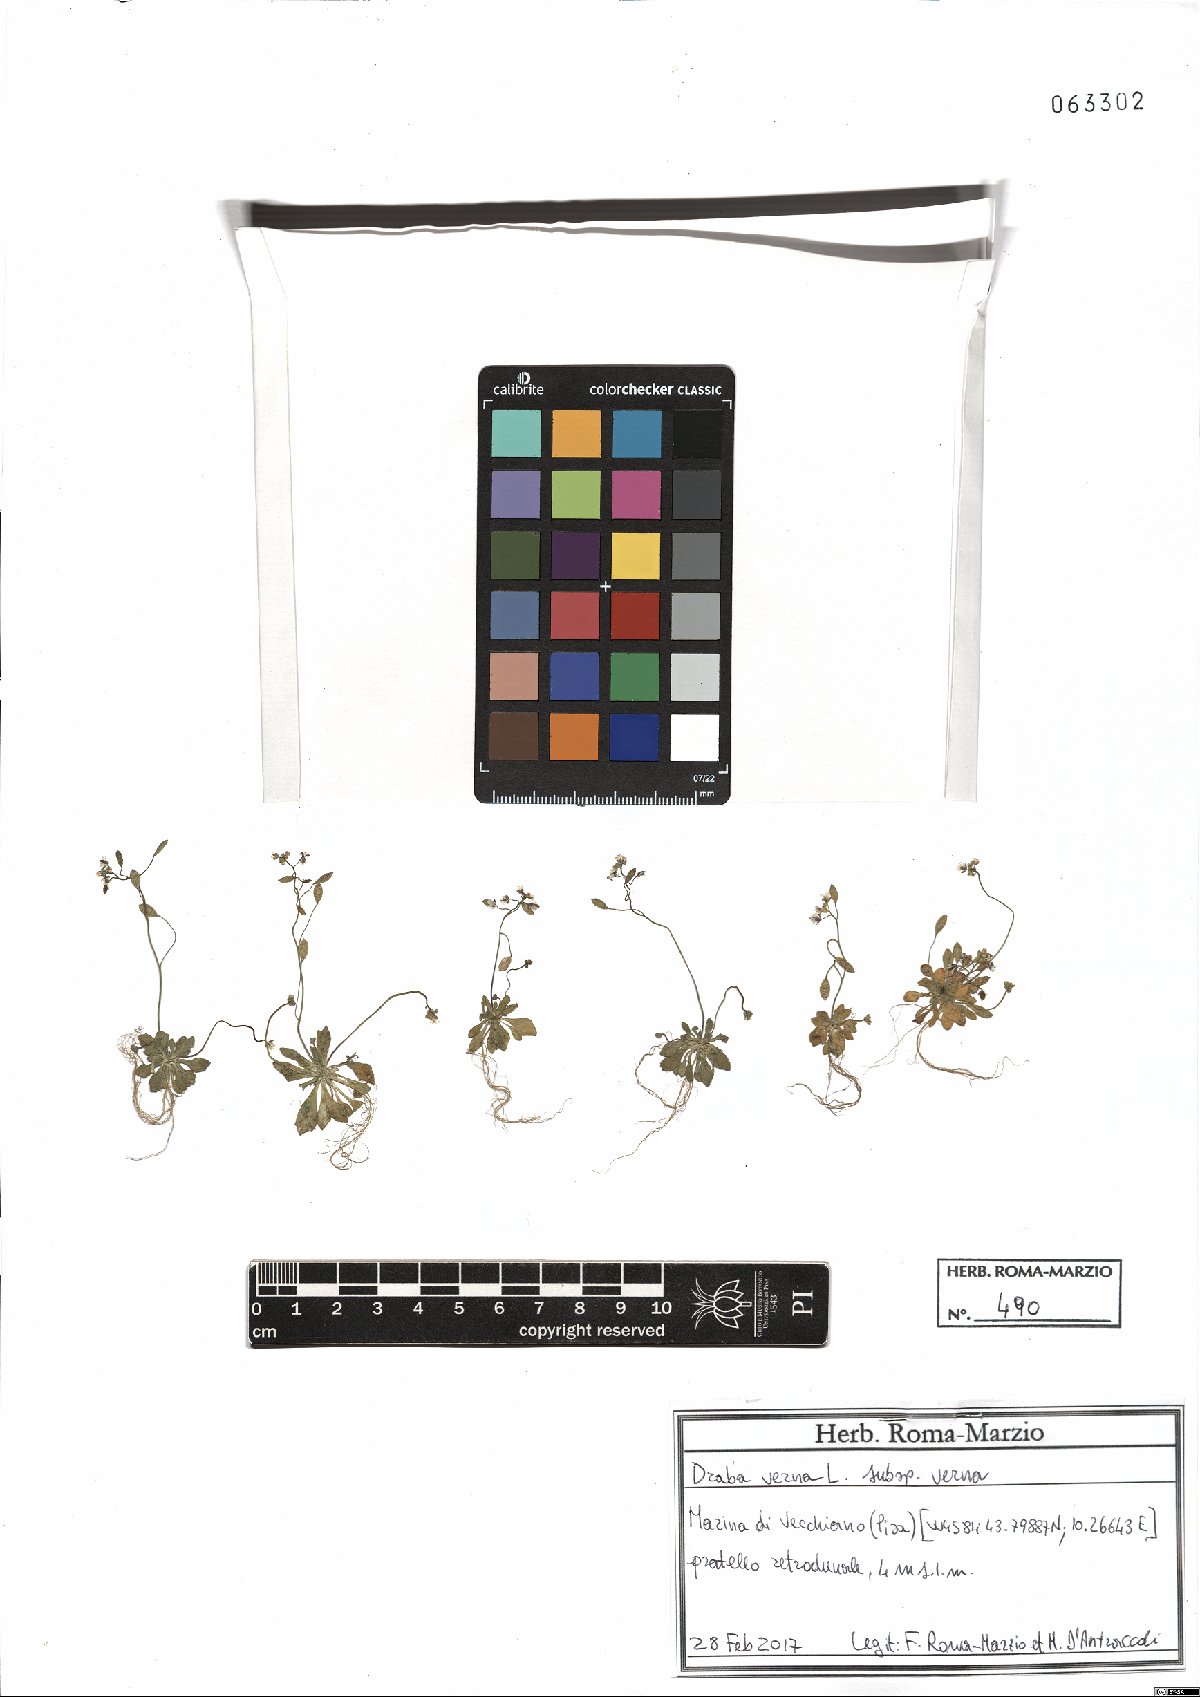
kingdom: Plantae
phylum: Tracheophyta
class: Magnoliopsida
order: Brassicales
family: Brassicaceae
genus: Draba
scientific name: Draba verna
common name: Spring draba
